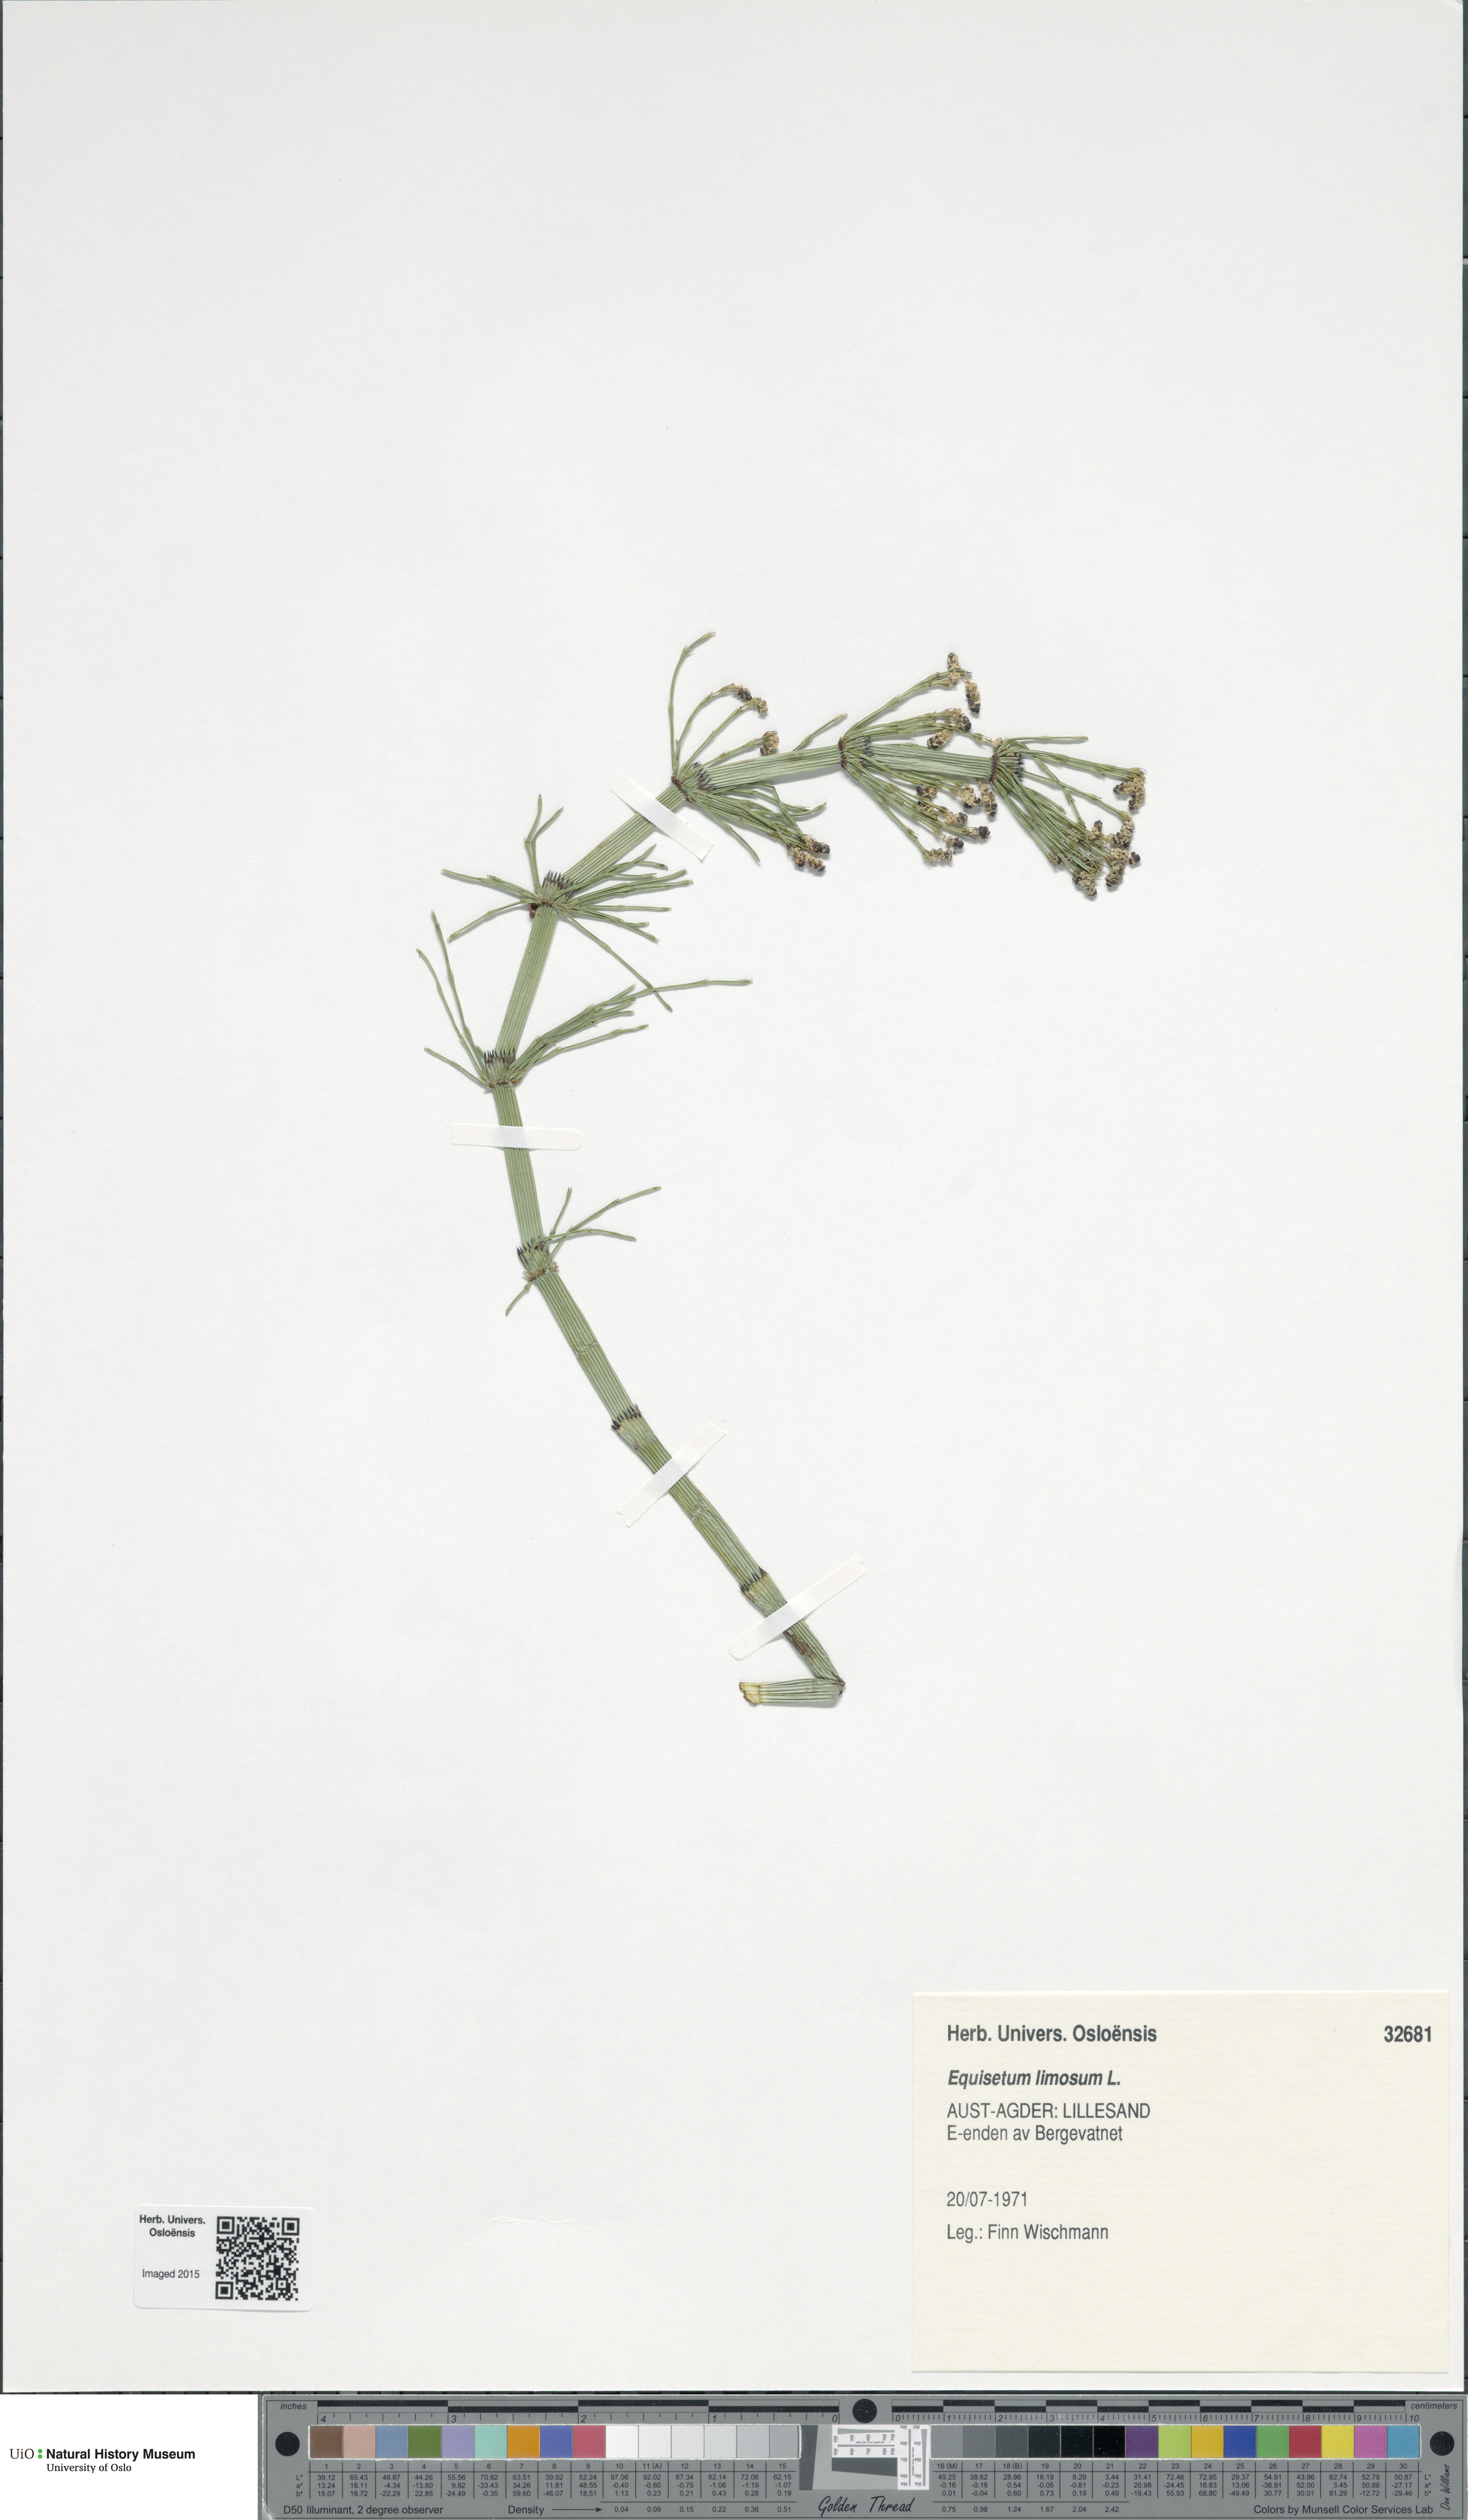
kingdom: Plantae
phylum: Tracheophyta
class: Polypodiopsida
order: Equisetales
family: Equisetaceae
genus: Equisetum
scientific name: Equisetum fluviatile
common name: Water horsetail
